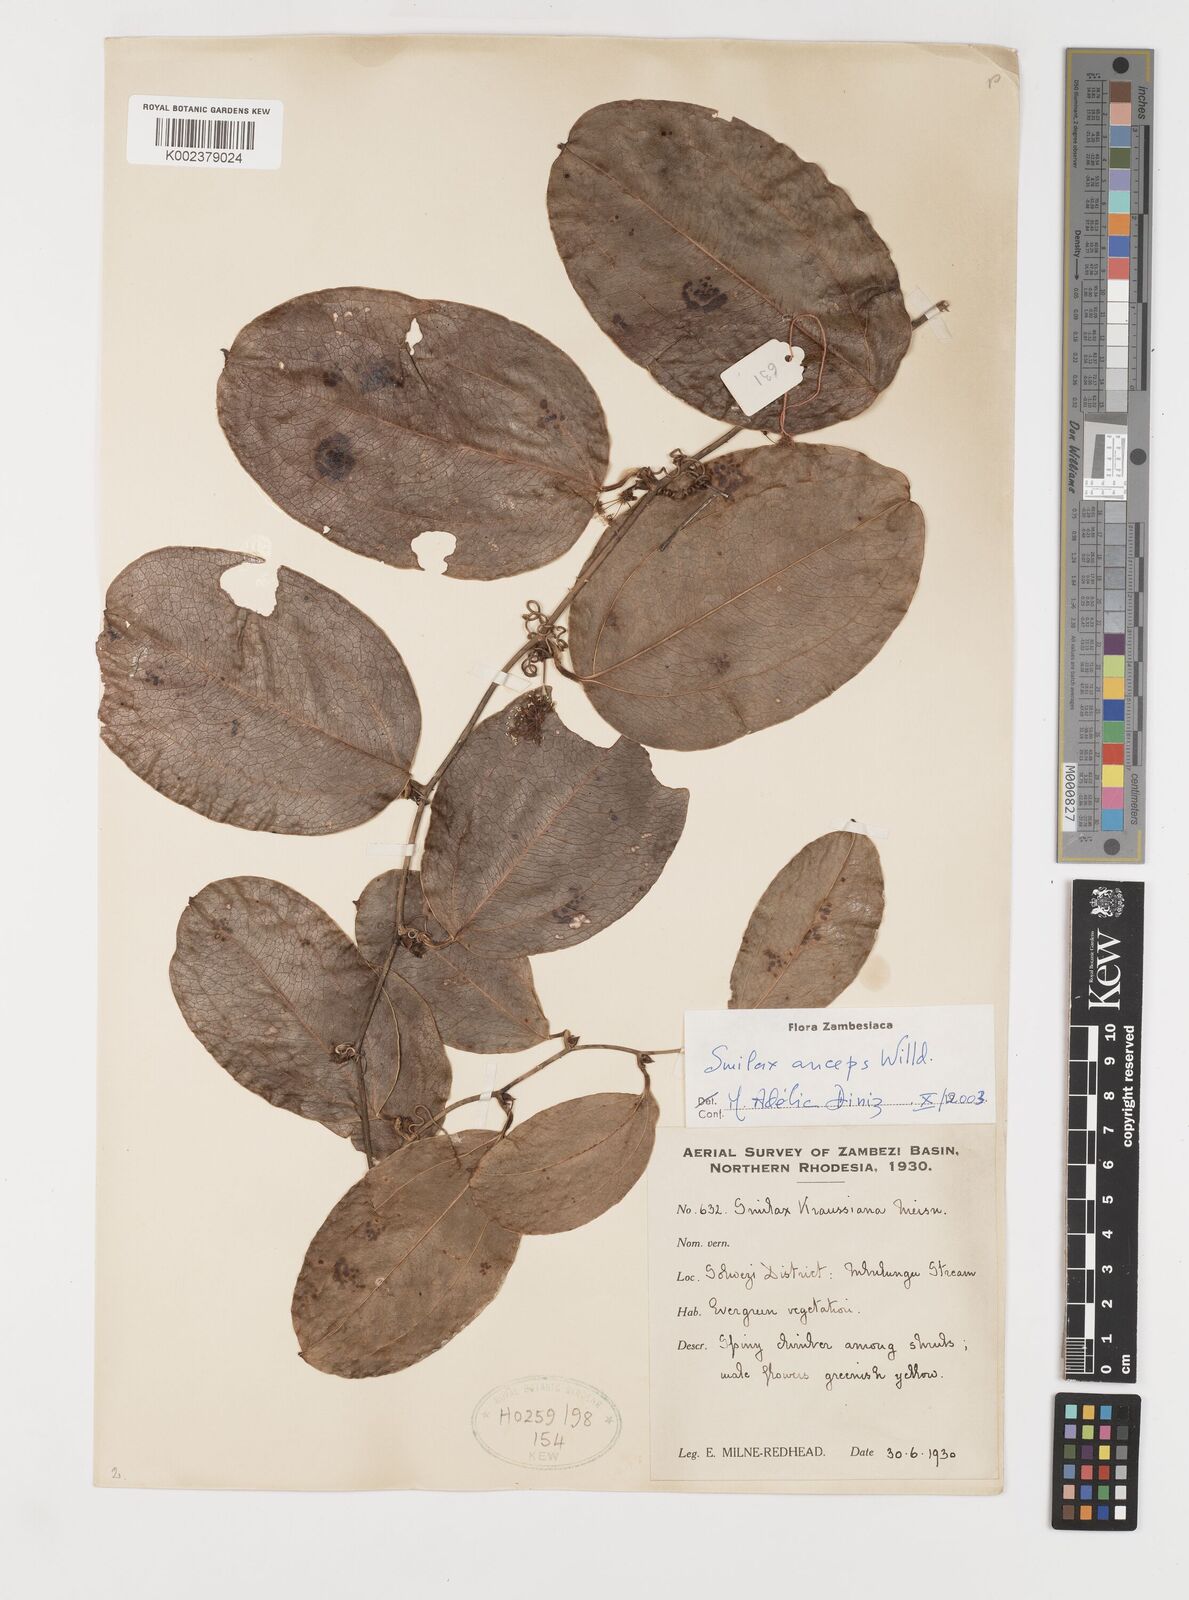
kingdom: Plantae
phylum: Tracheophyta
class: Liliopsida
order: Liliales
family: Smilacaceae
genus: Smilax
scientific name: Smilax anceps
